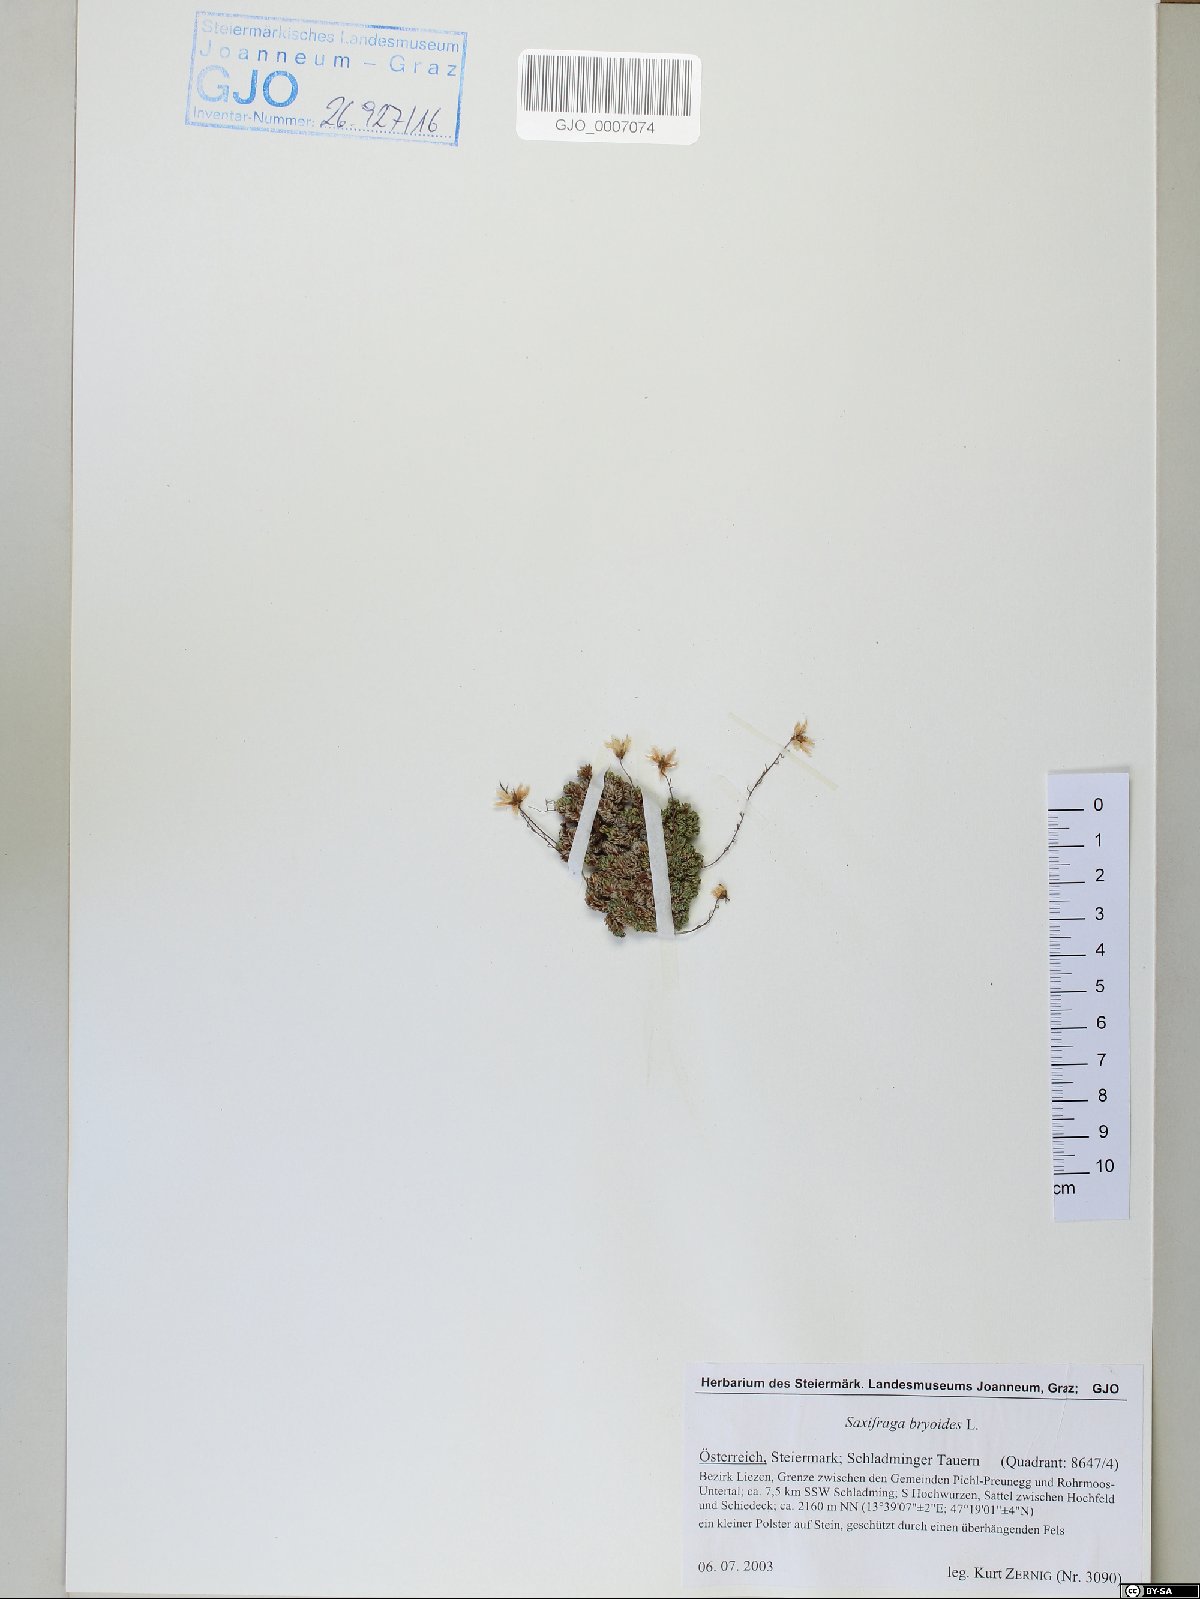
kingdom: Plantae
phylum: Tracheophyta
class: Magnoliopsida
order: Saxifragales
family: Saxifragaceae
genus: Saxifraga
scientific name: Saxifraga bryoides
